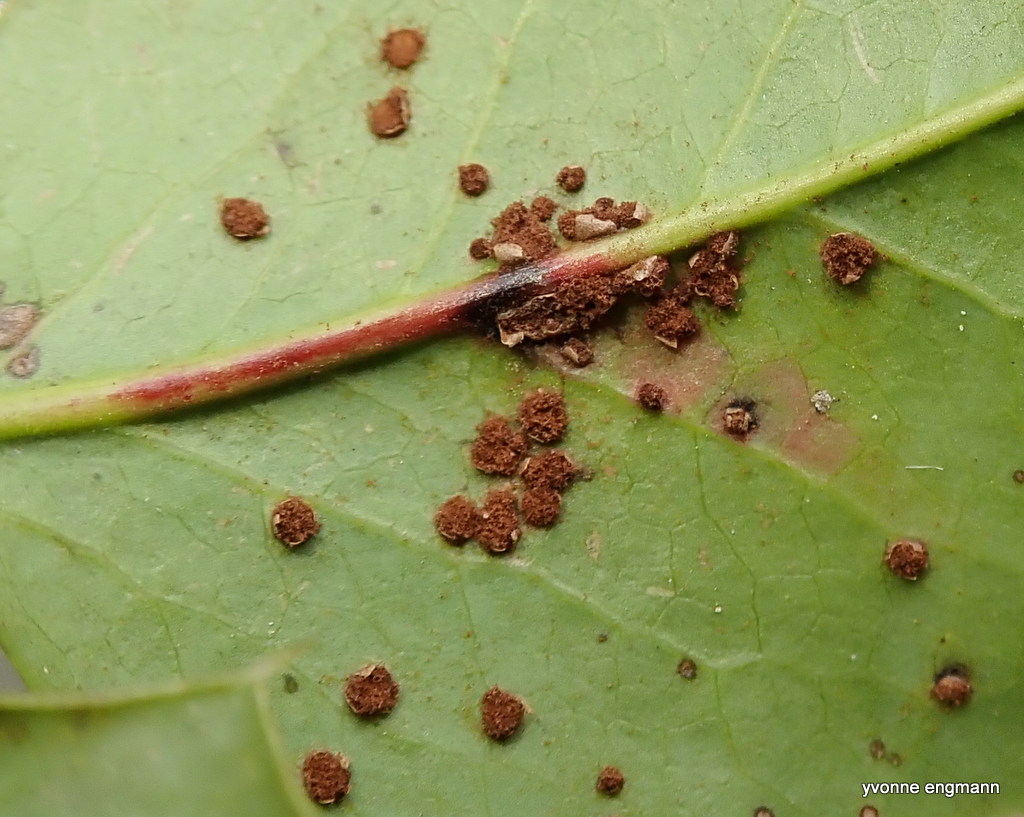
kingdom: Fungi
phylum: Basidiomycota
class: Pucciniomycetes
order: Pucciniales
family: Pucciniaceae
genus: Cumminsiella
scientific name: Cumminsiella mirabilissima
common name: mahonierust
